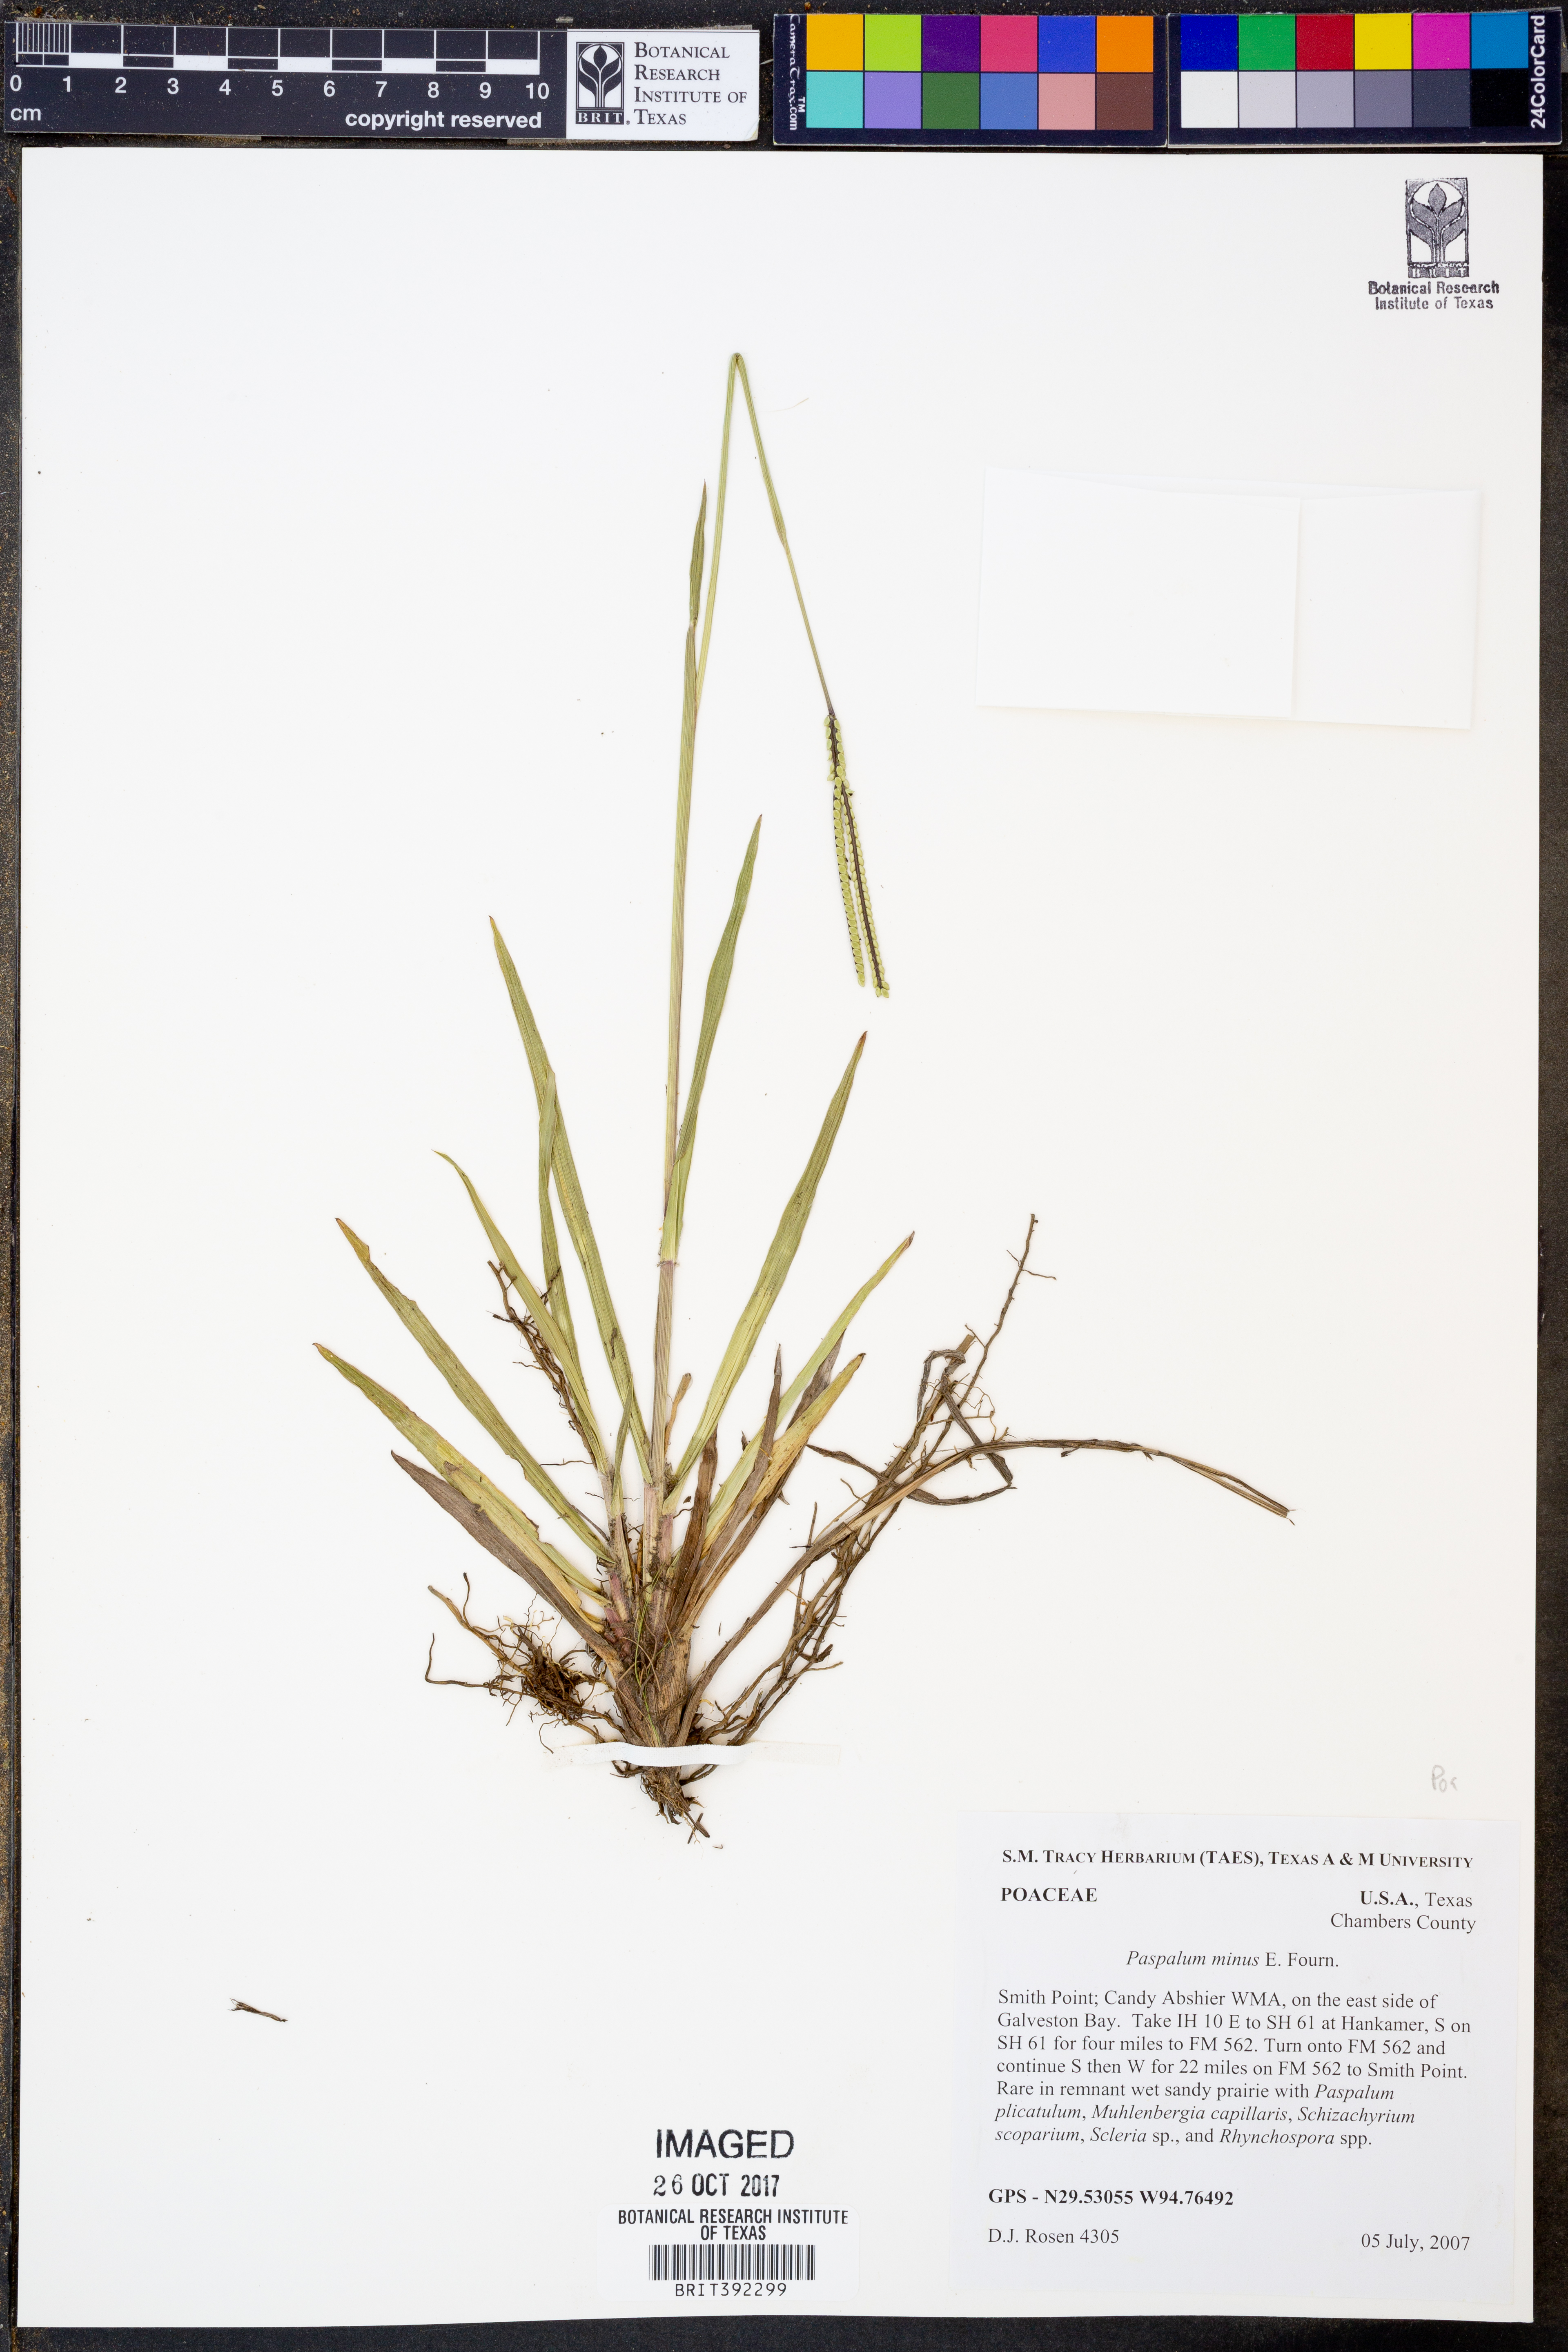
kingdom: Plantae
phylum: Tracheophyta
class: Liliopsida
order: Poales
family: Poaceae
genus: Paspalum
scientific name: Paspalum minus
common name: Matted paspalum
